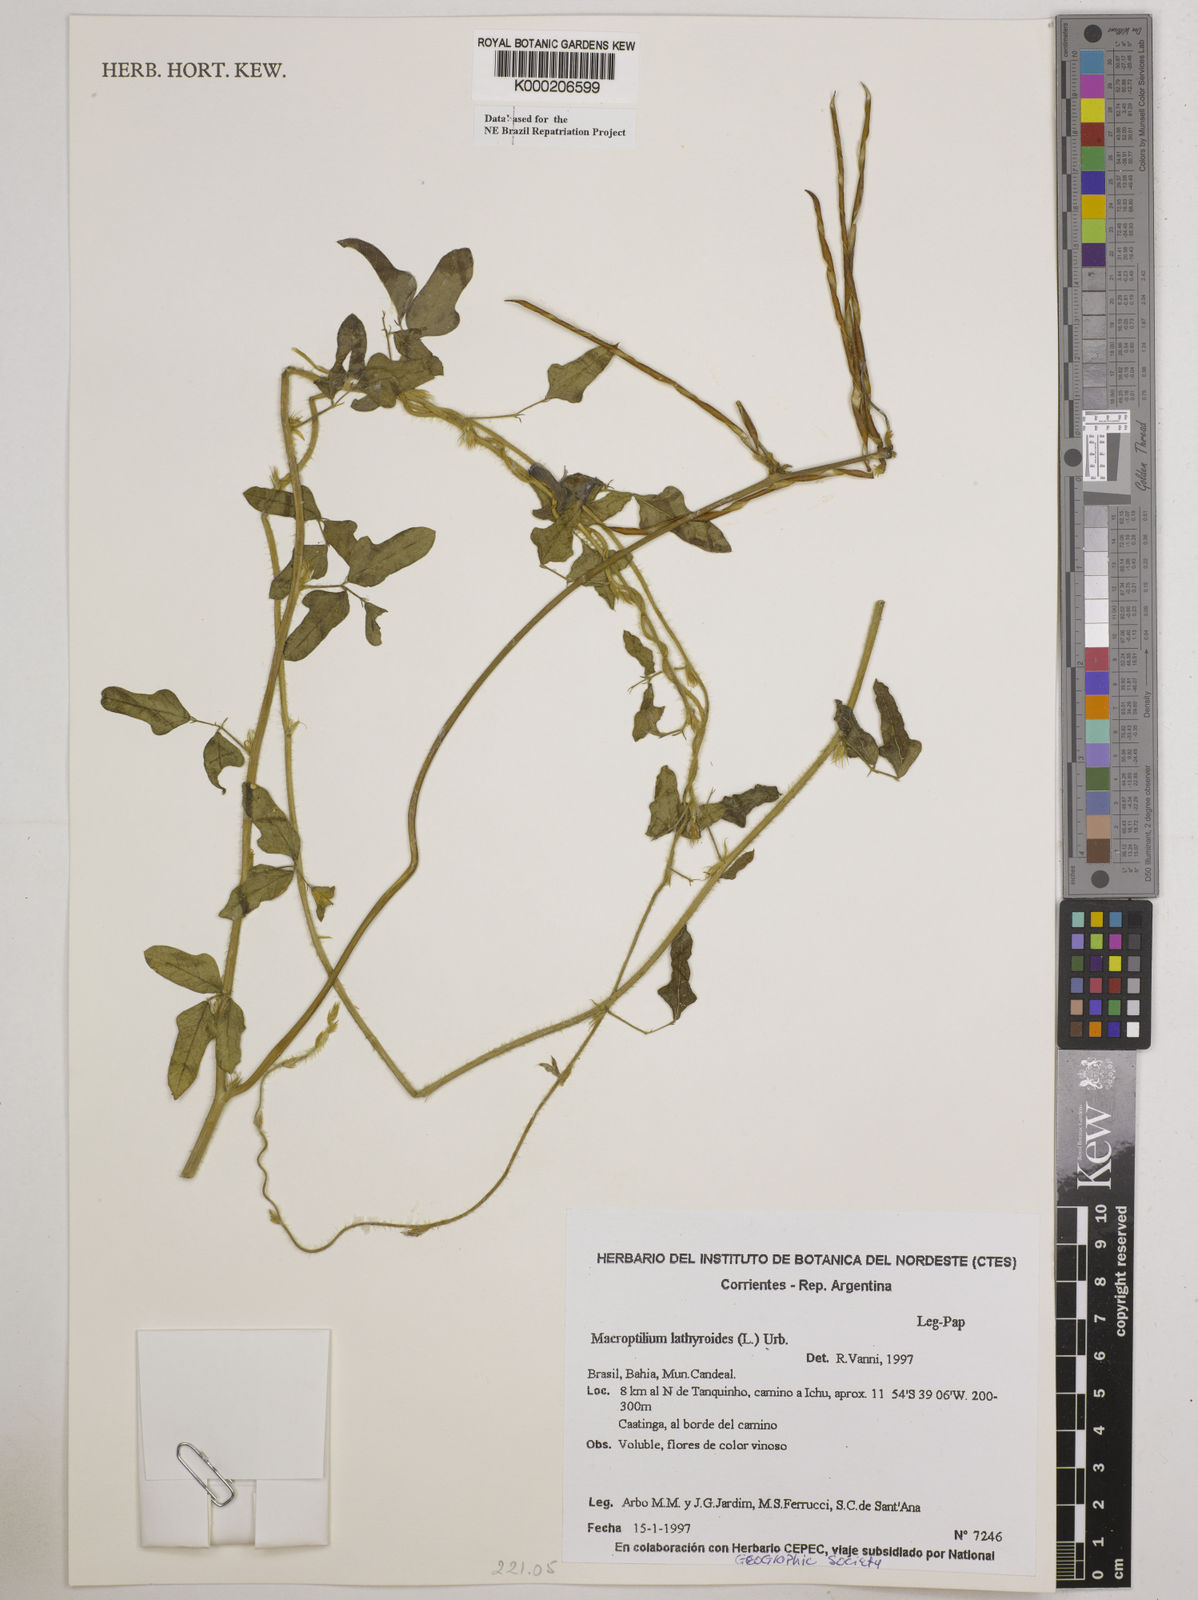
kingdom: Plantae
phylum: Tracheophyta
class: Magnoliopsida
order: Fabales
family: Fabaceae
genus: Macroptilium
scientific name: Macroptilium lathyroides
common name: Wild bushbean
